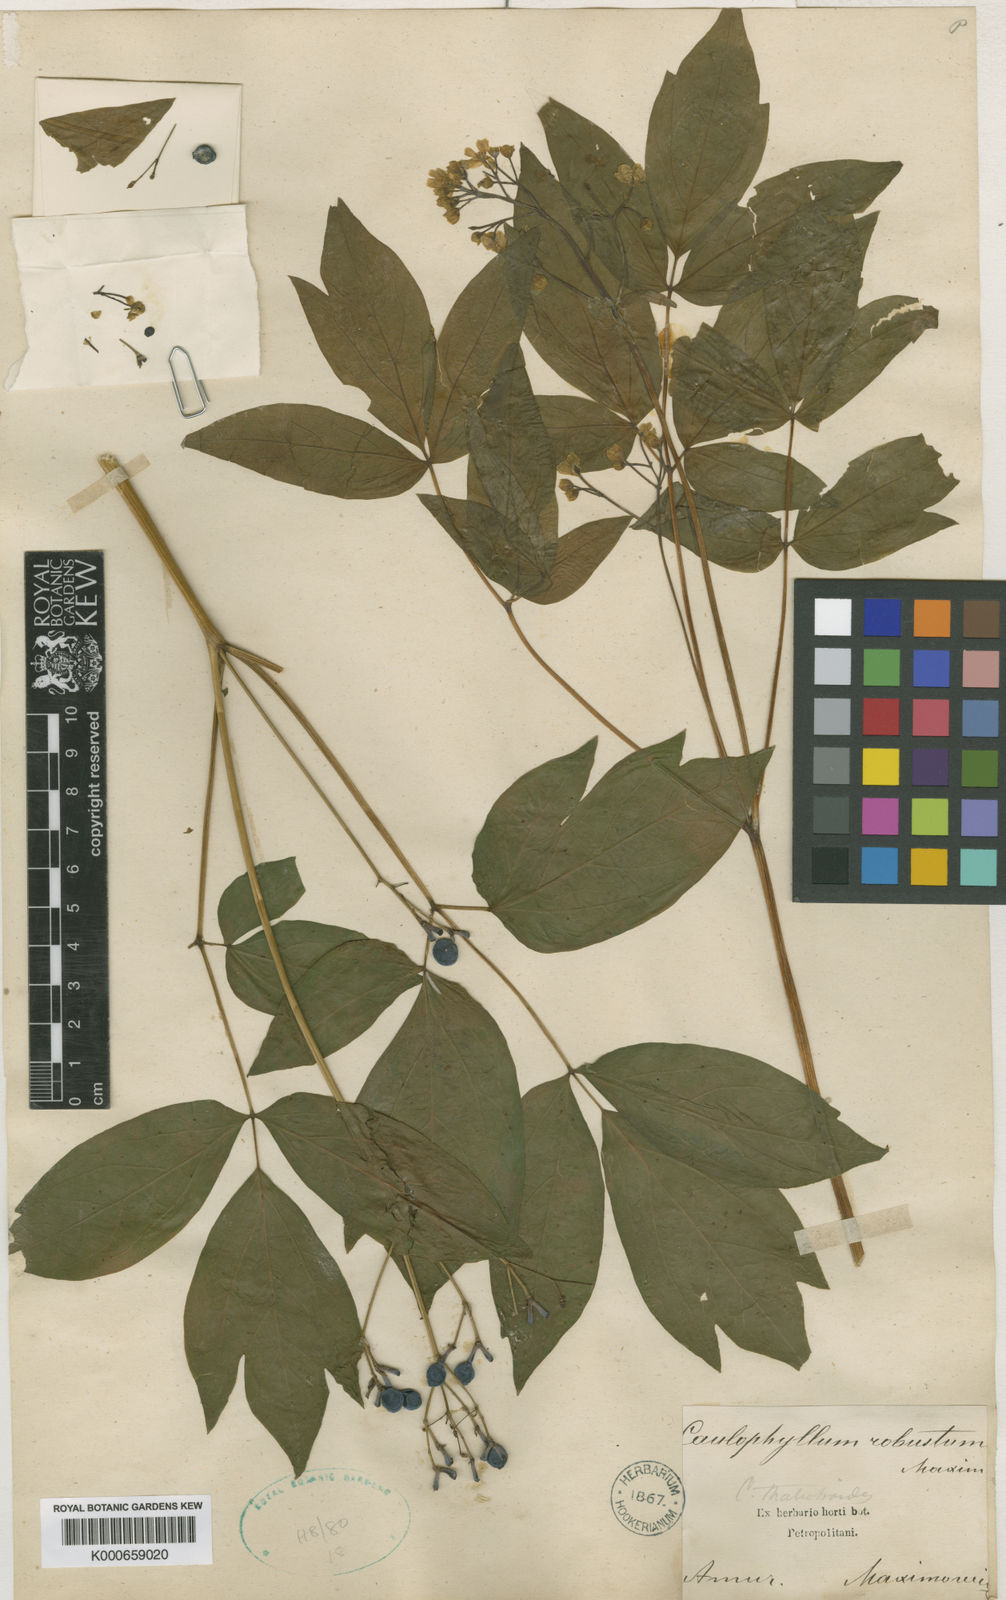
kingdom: Plantae
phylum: Tracheophyta
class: Magnoliopsida
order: Ranunculales
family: Berberidaceae
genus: Caulophyllum
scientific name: Caulophyllum robustum
